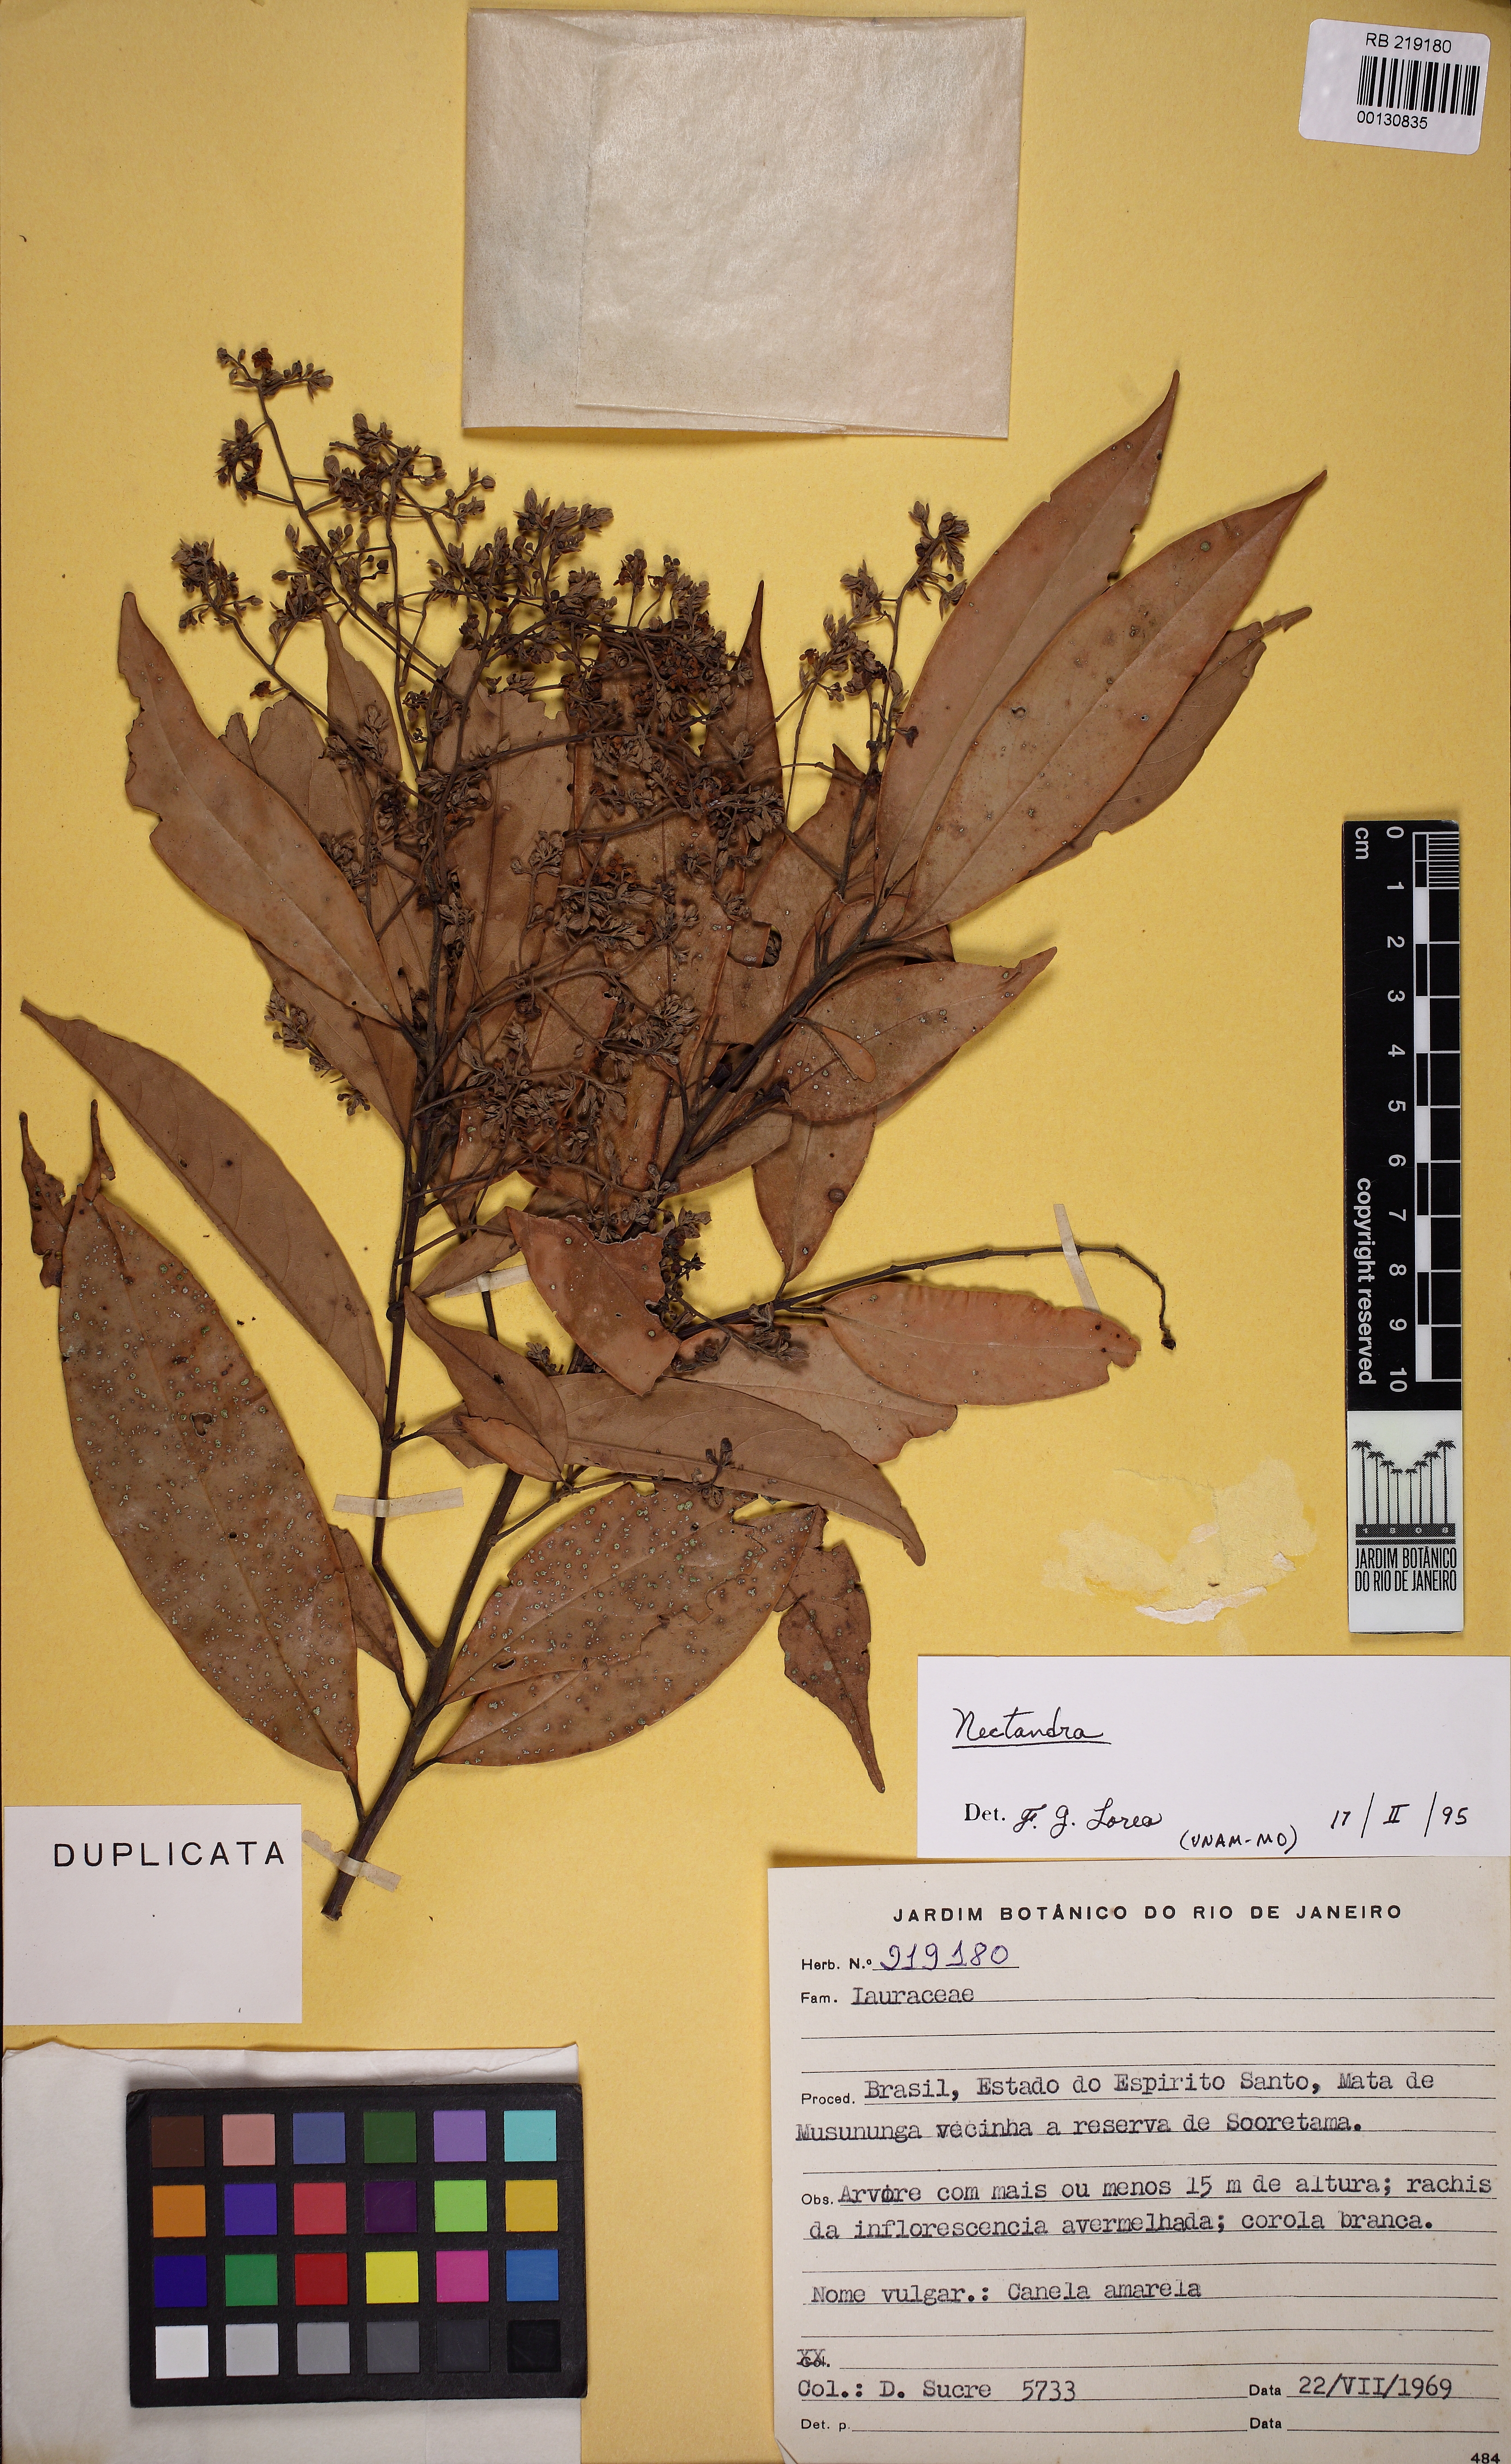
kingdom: Plantae
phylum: Tracheophyta
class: Magnoliopsida
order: Laurales
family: Lauraceae
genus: Nectandra
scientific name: Nectandra
